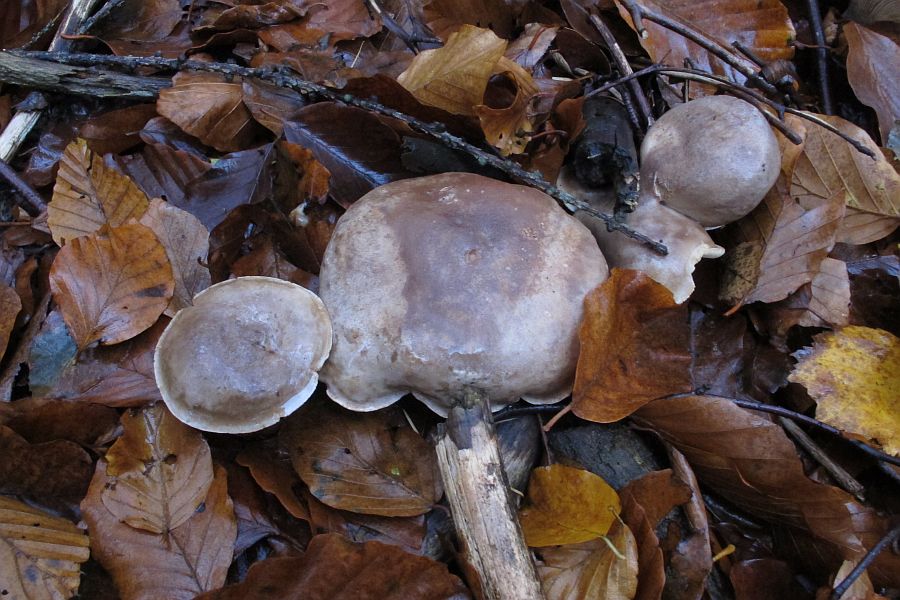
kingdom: Fungi
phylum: Basidiomycota
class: Agaricomycetes
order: Russulales
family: Russulaceae
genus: Lactarius
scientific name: Lactarius fluens
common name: lysrandet mælkehat
